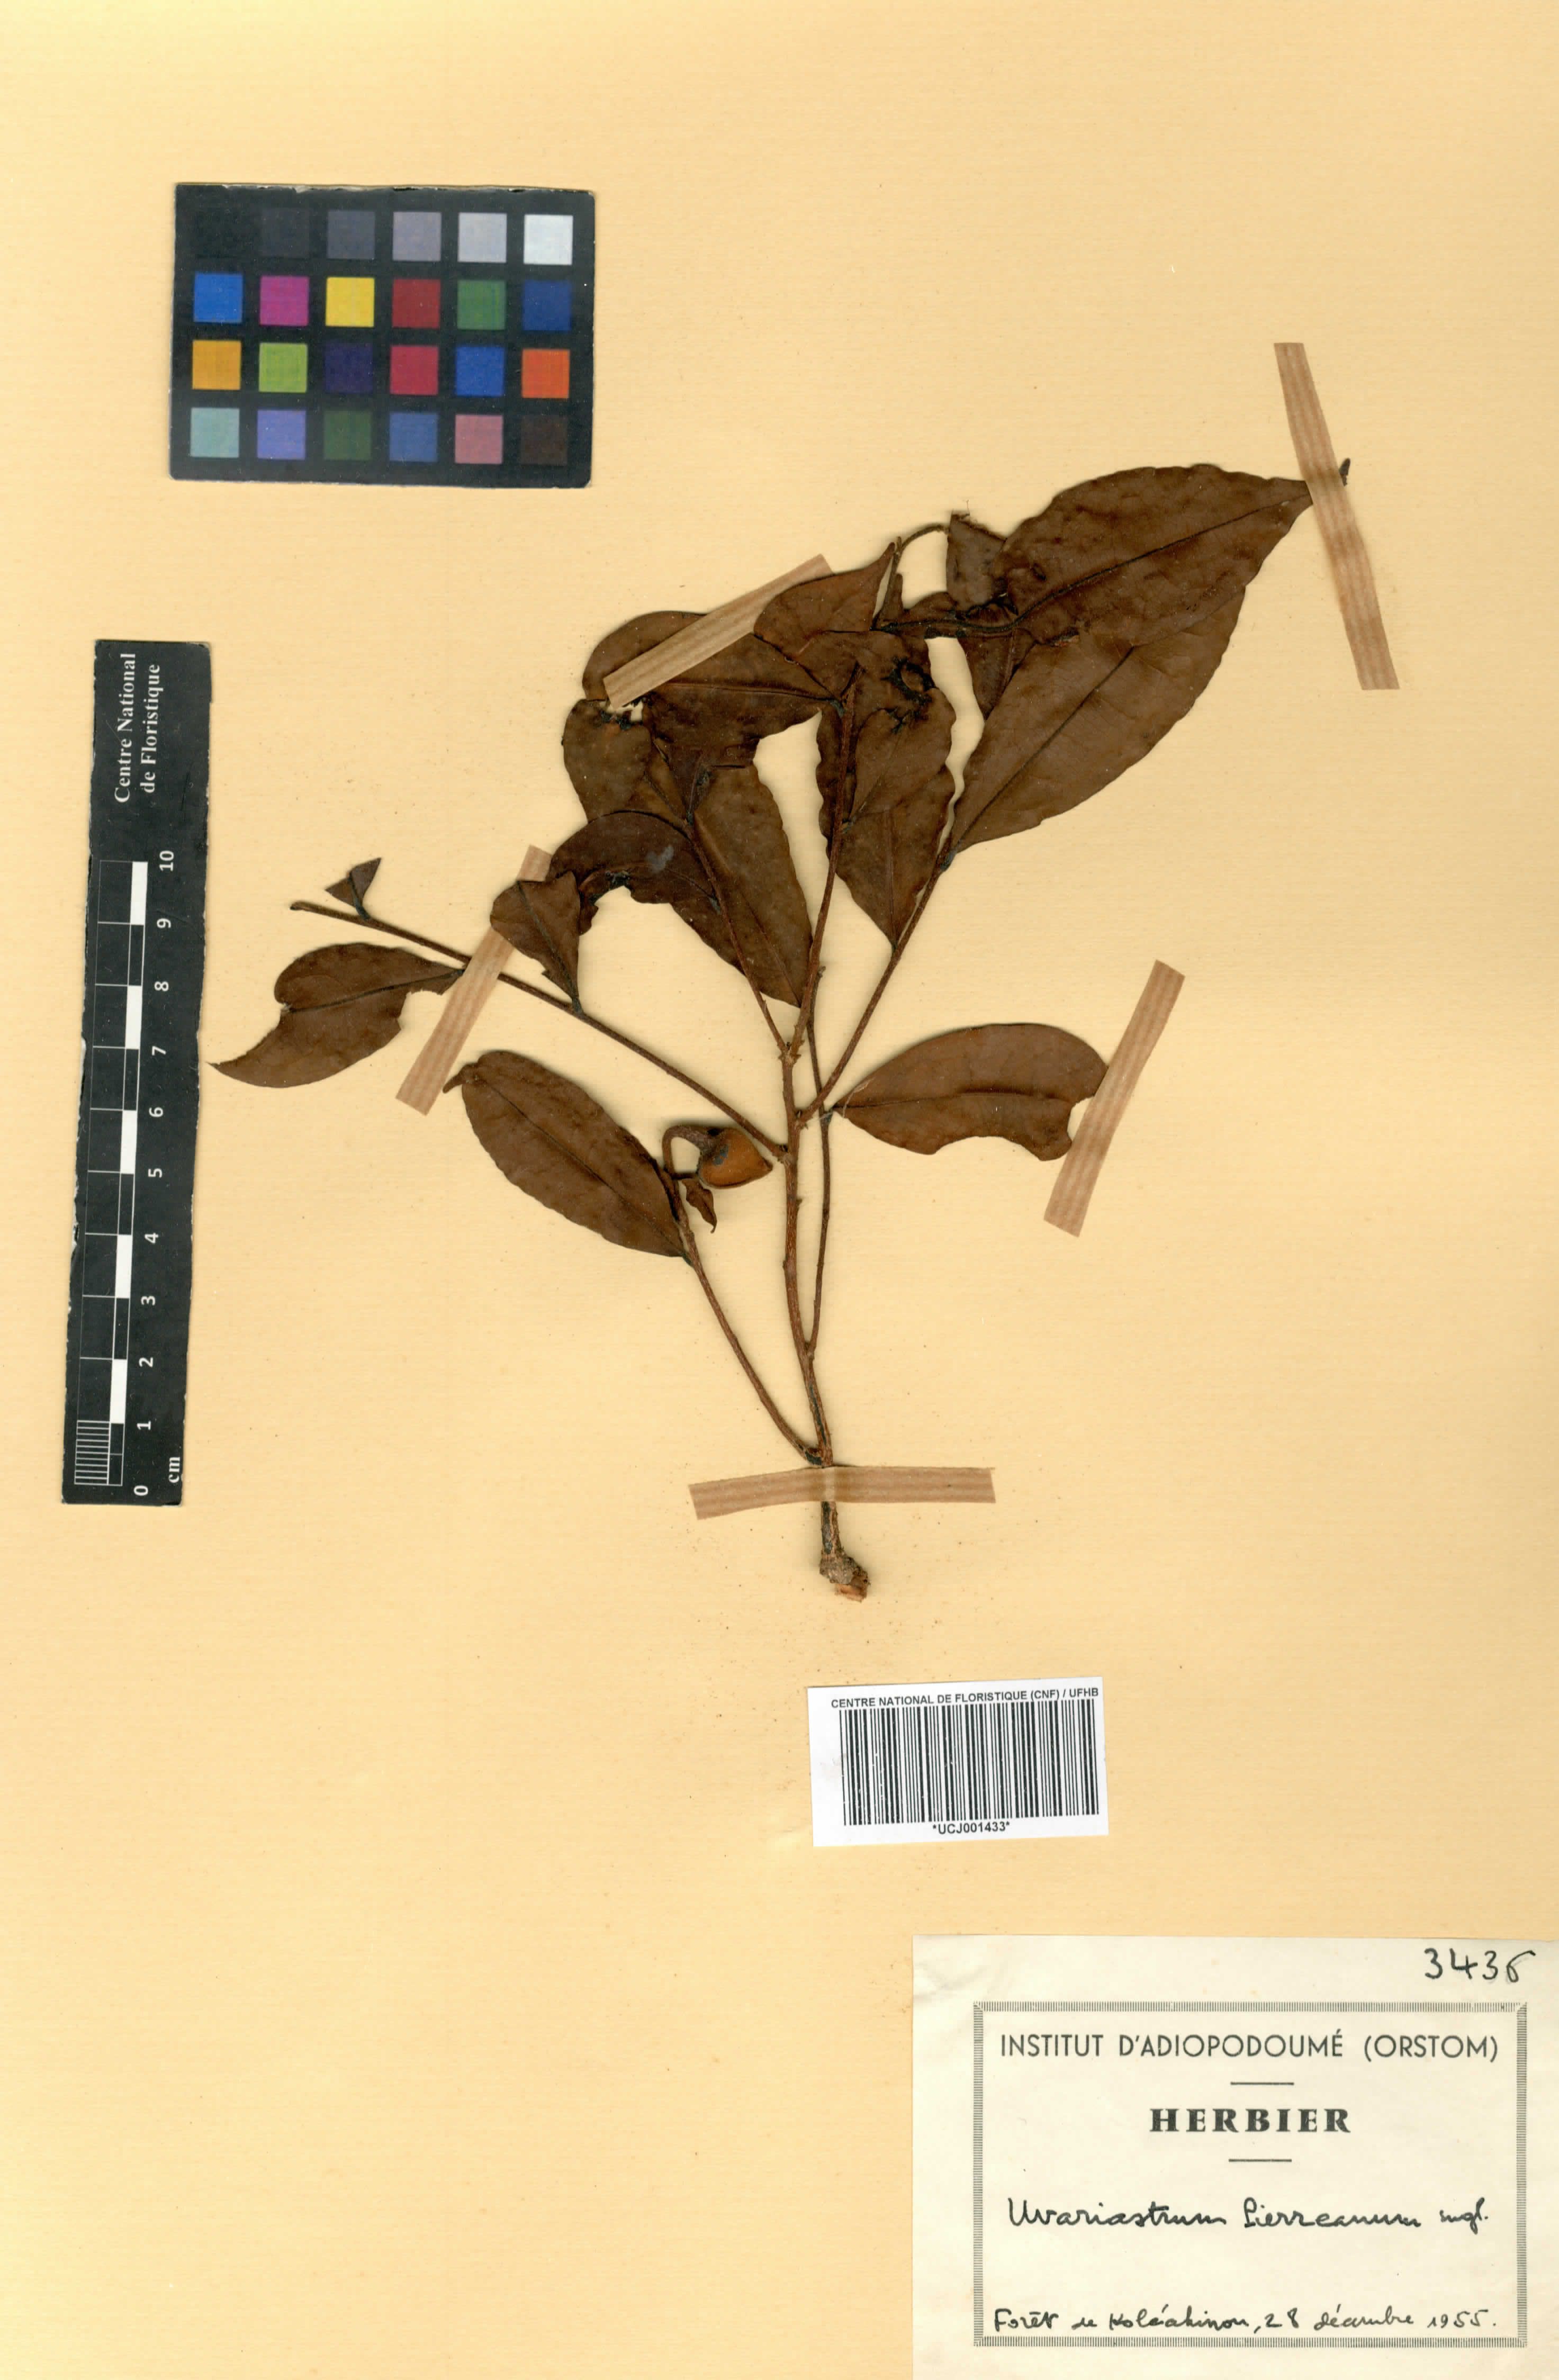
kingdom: Plantae
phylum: Tracheophyta
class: Magnoliopsida
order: Magnoliales
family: Annonaceae
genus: Uvariastrum
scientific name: Uvariastrum pierreanum
